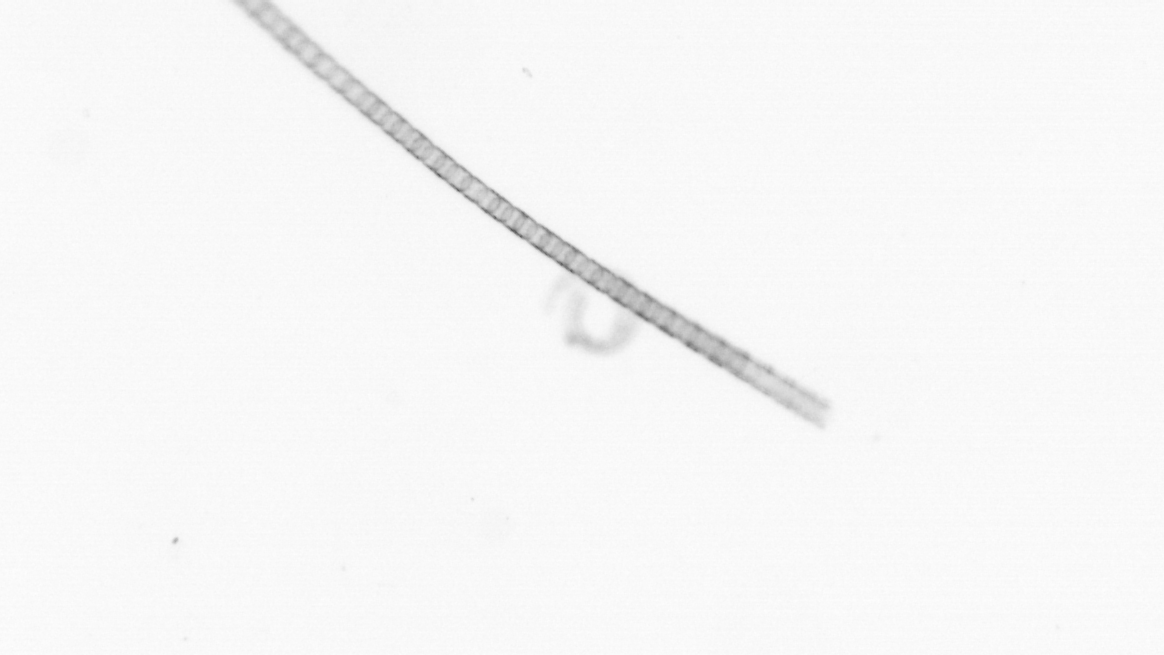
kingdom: Chromista
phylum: Ochrophyta
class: Bacillariophyceae
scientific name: Bacillariophyceae
